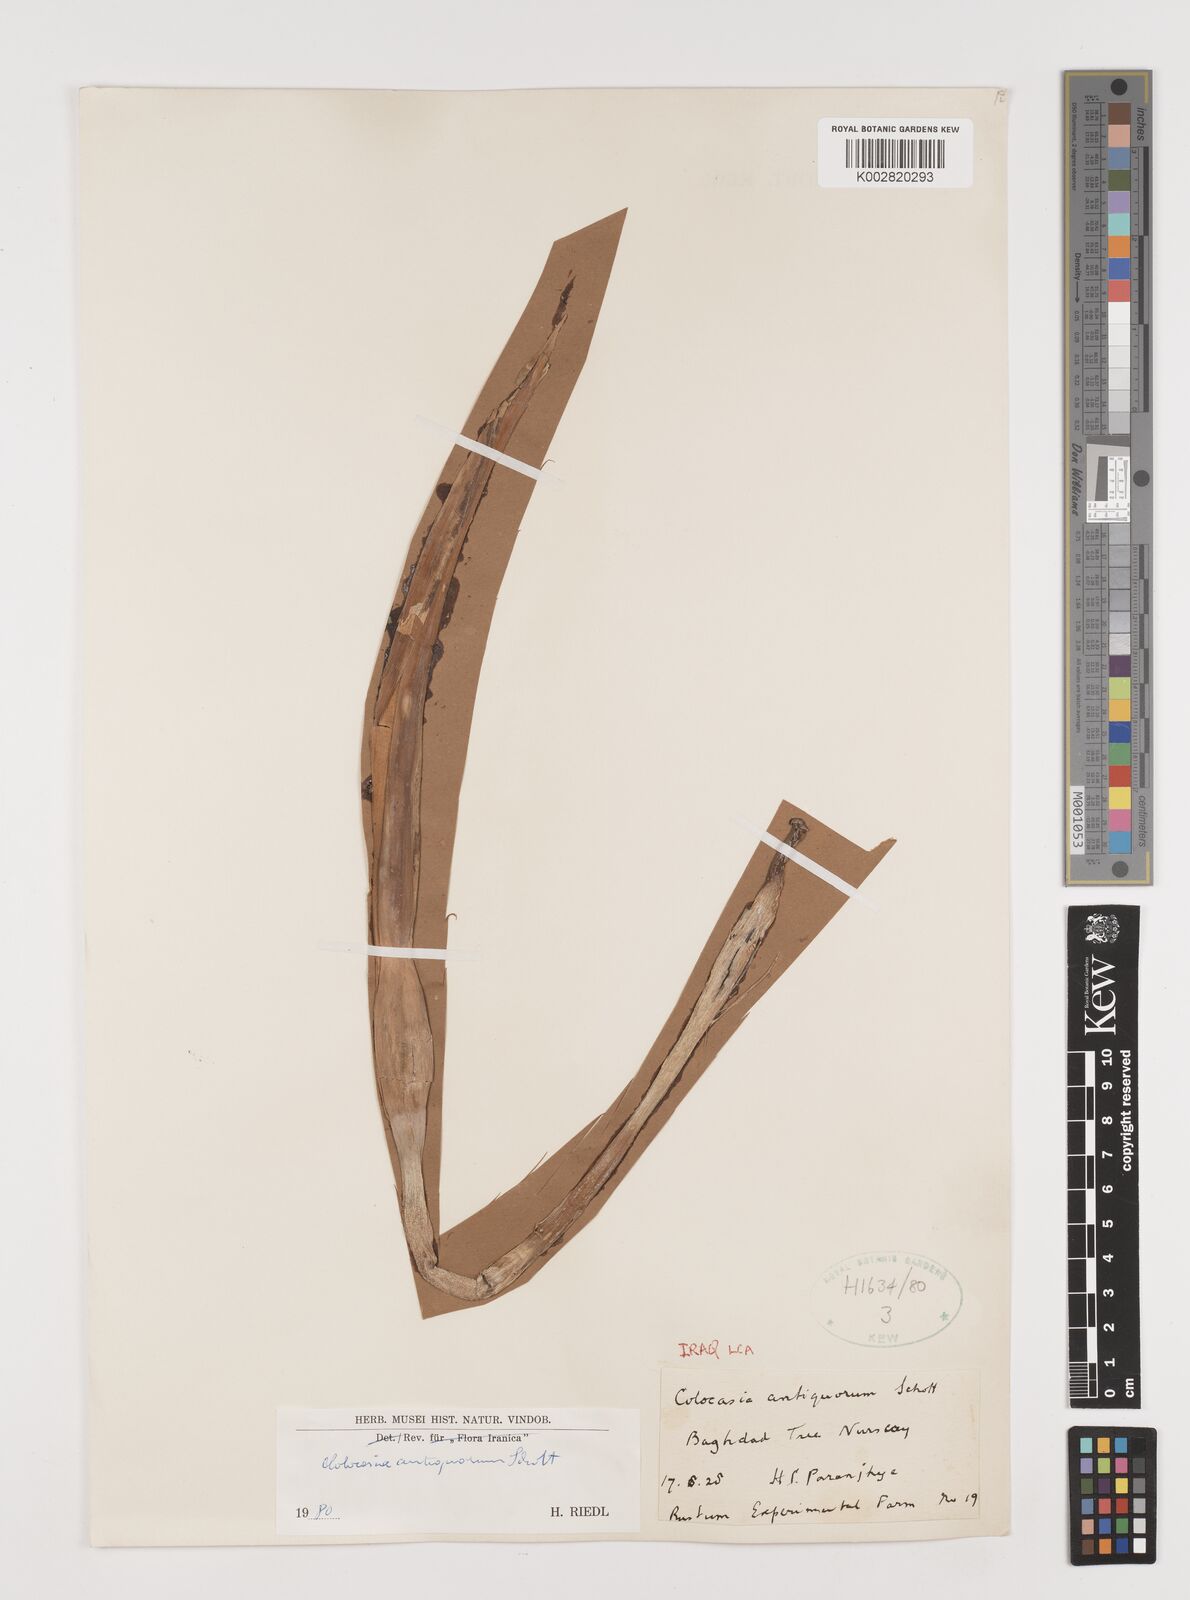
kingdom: Plantae
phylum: Tracheophyta
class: Liliopsida
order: Alismatales
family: Araceae
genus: Colocasia
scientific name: Colocasia esculenta
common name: Taro
